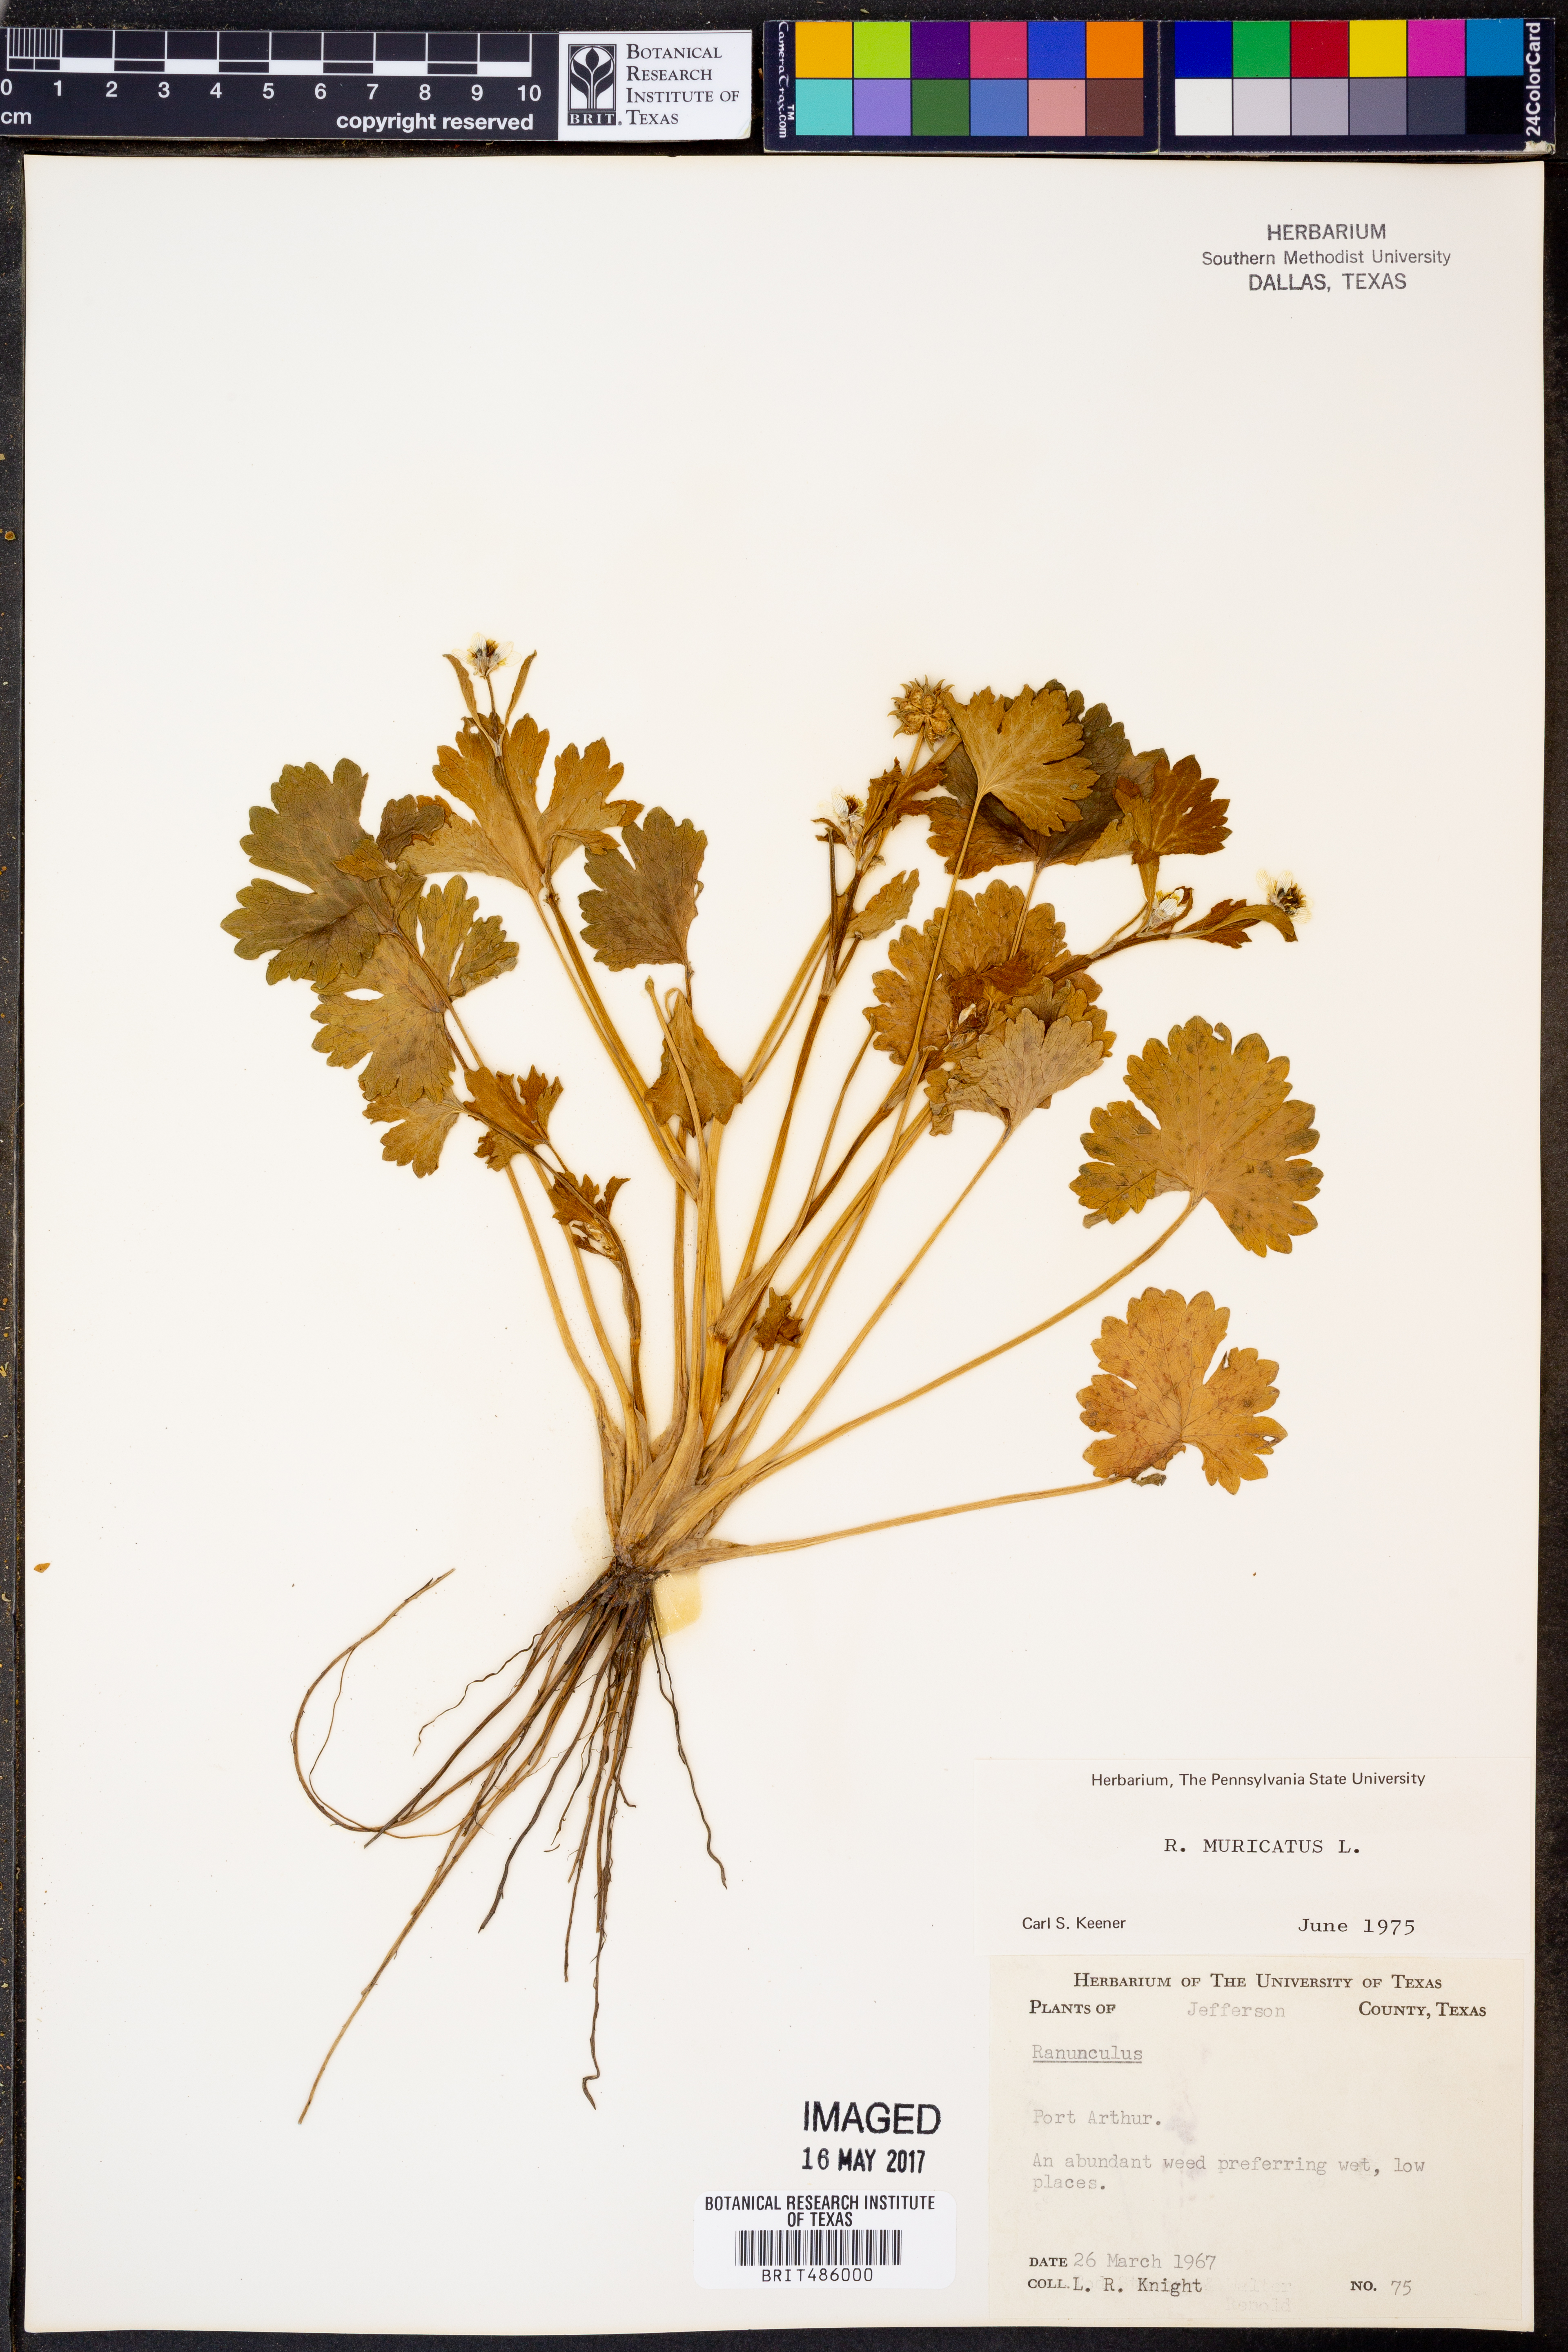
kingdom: Plantae
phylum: Tracheophyta
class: Magnoliopsida
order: Ranunculales
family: Ranunculaceae
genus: Ranunculus
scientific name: Ranunculus muricatus
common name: Rough-fruited buttercup
